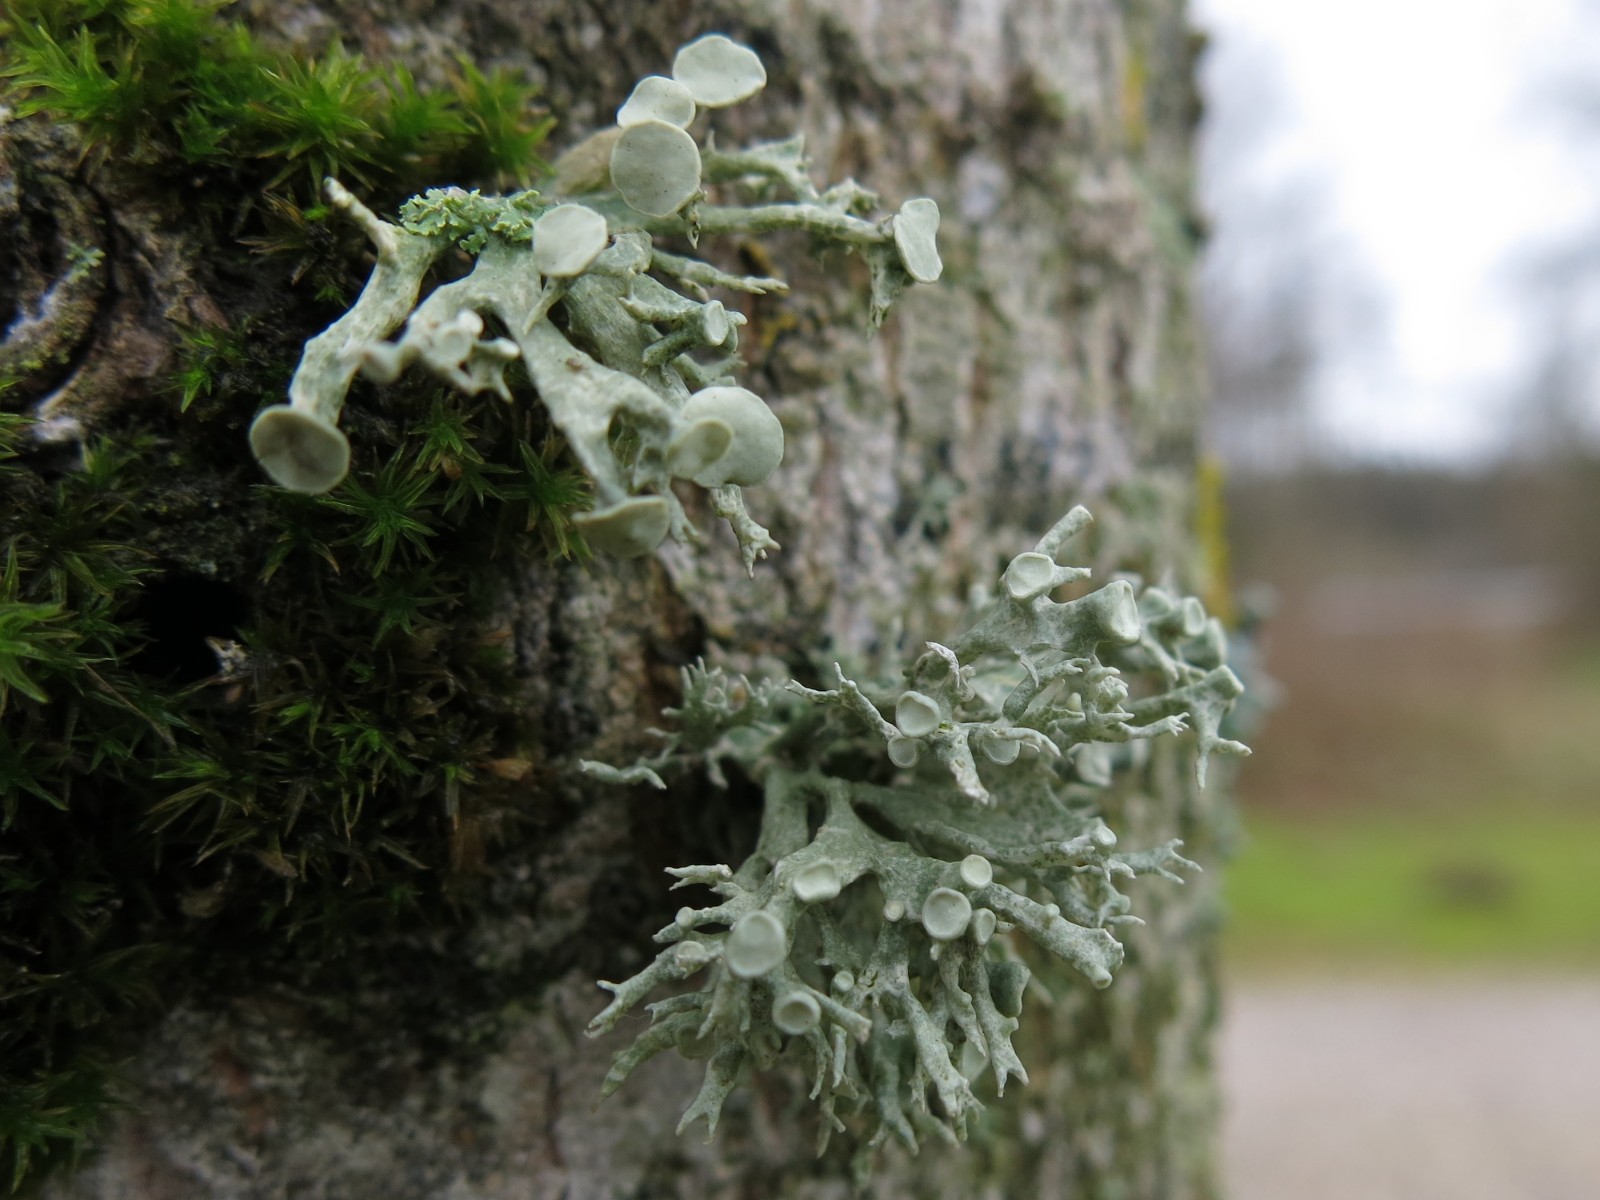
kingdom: Fungi
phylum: Ascomycota
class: Lecanoromycetes
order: Lecanorales
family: Ramalinaceae
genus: Ramalina
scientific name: Ramalina fastigiata
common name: tue-grenlav
